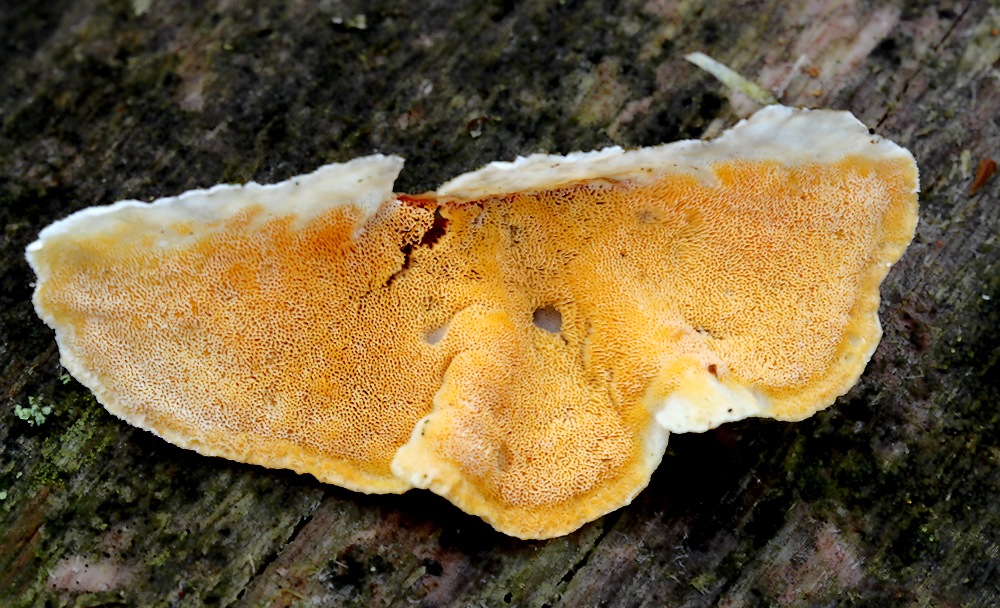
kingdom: Fungi
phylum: Basidiomycota
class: Agaricomycetes
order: Polyporales
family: Incrustoporiaceae
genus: Skeletocutis
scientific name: Skeletocutis amorpha
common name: orange krystalporesvamp
